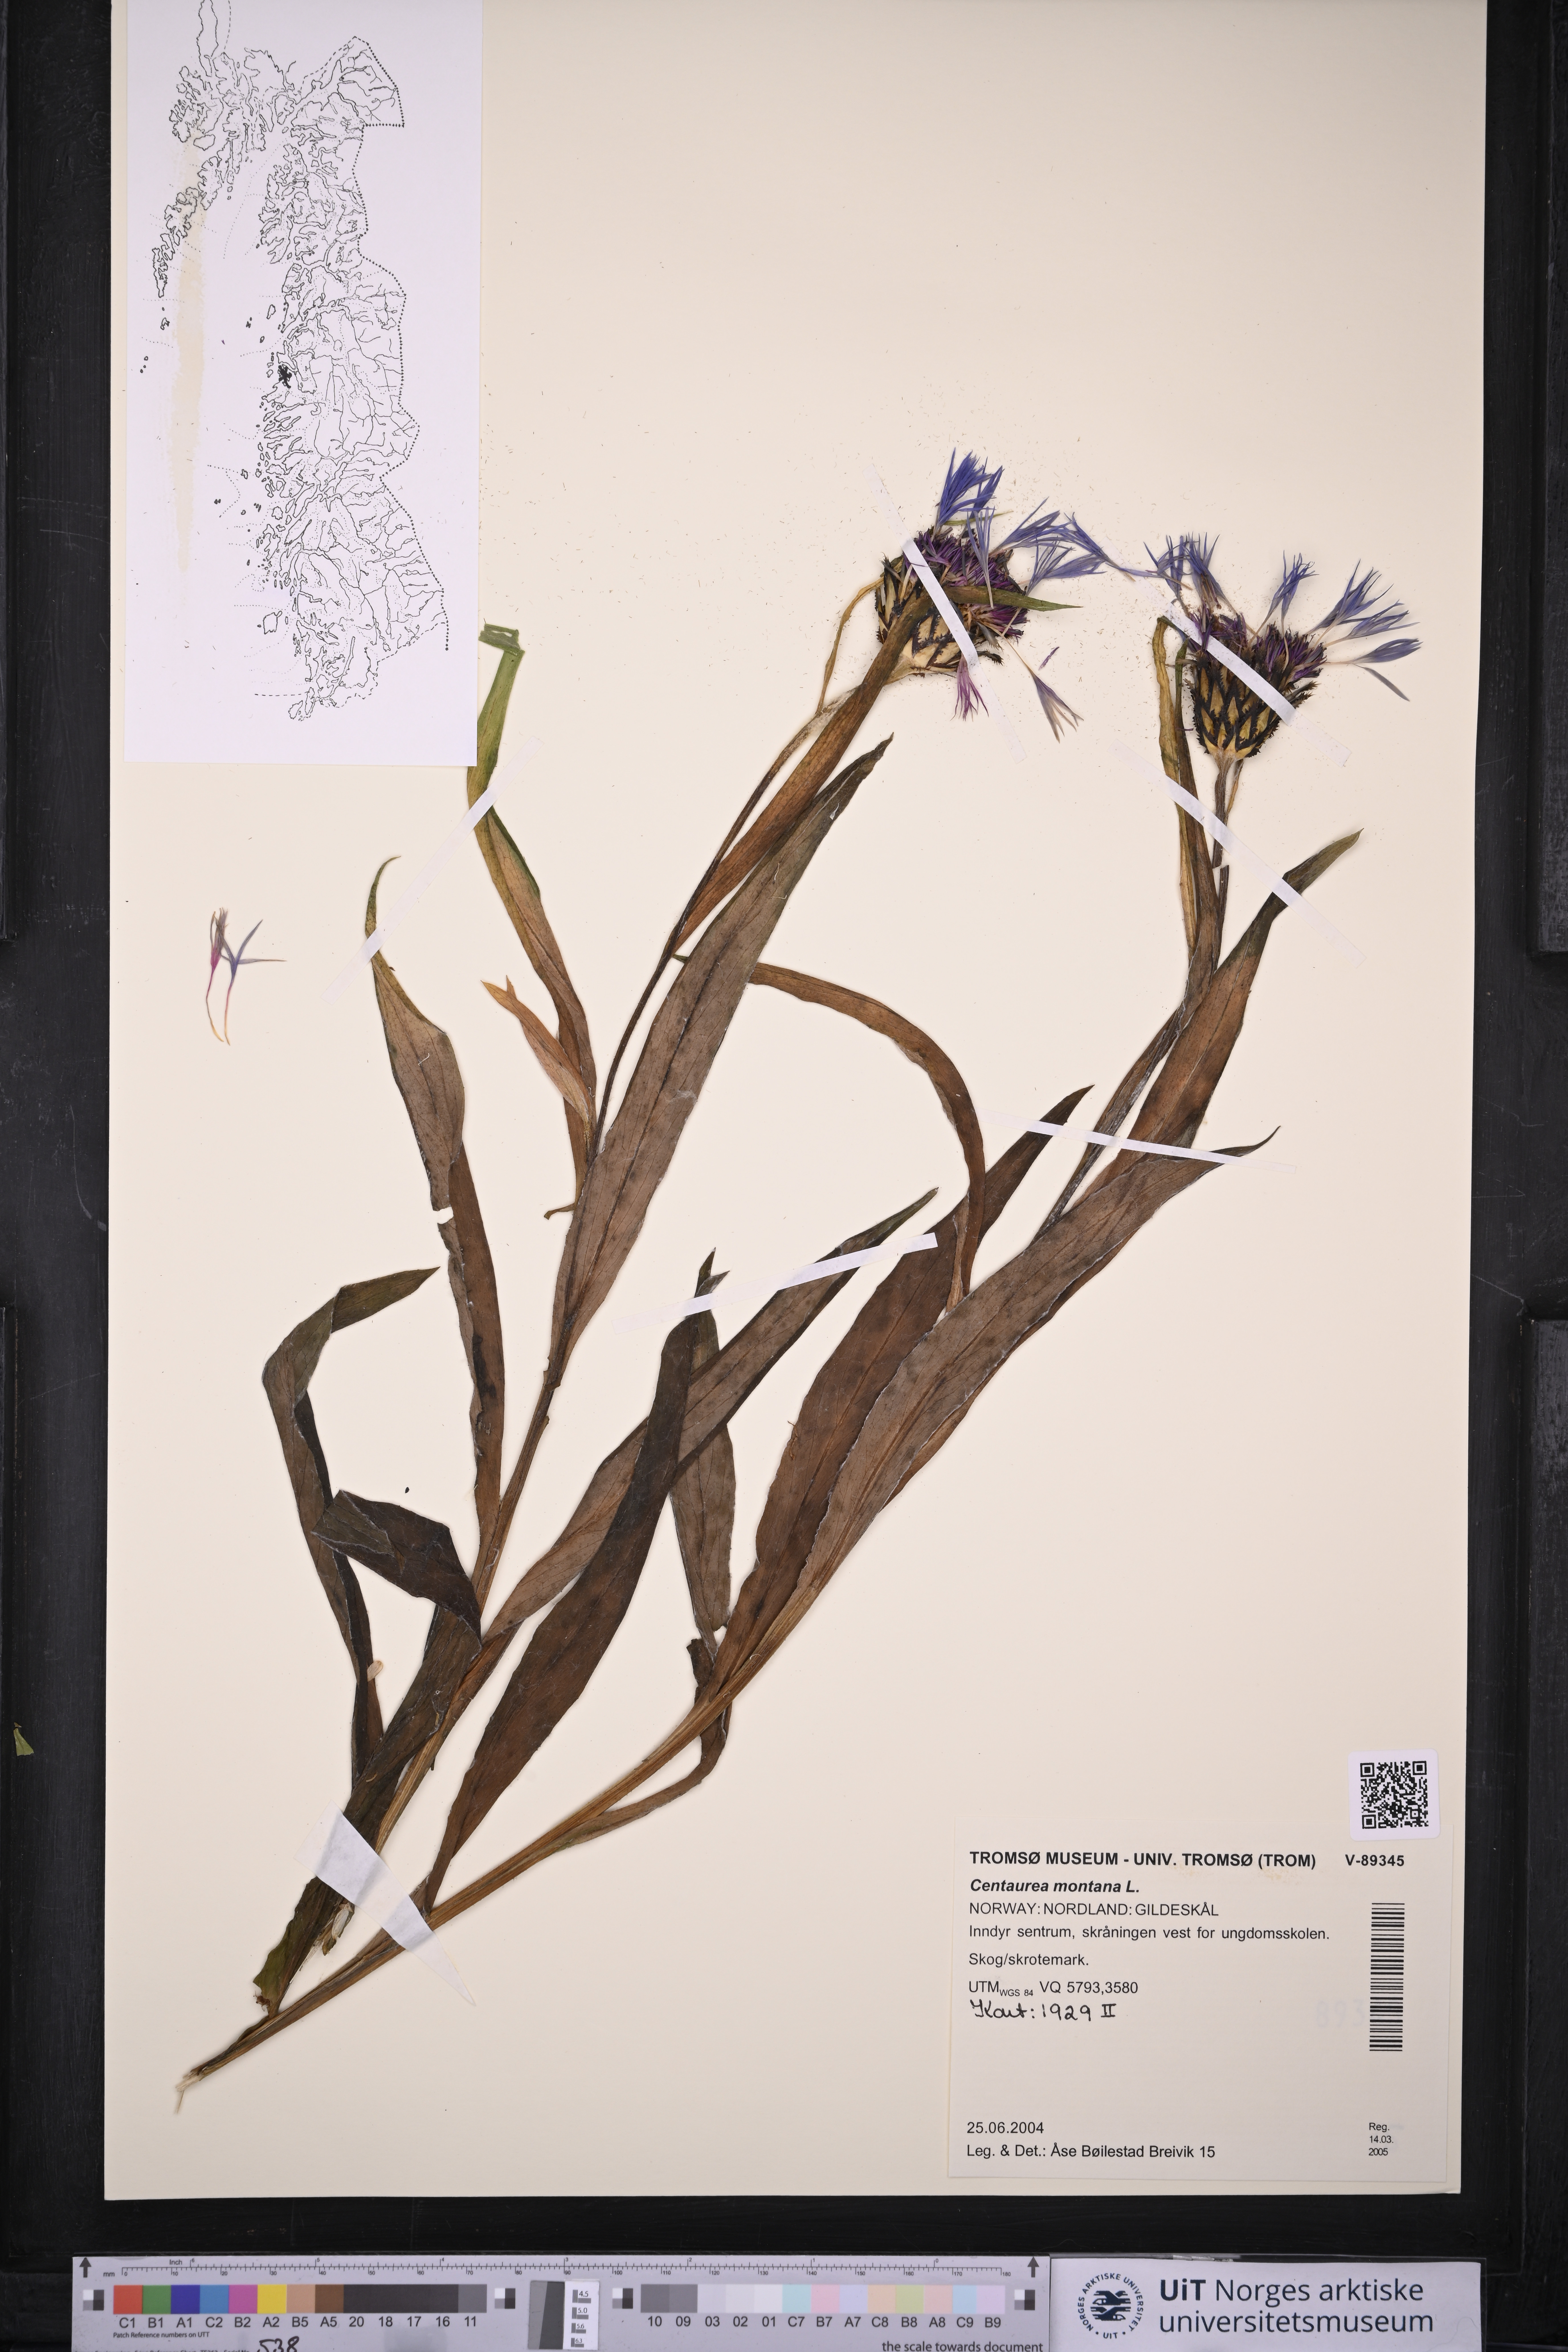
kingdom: Plantae
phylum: Tracheophyta
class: Magnoliopsida
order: Asterales
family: Asteraceae
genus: Centaurea
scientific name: Centaurea montana
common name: Perennial cornflower
